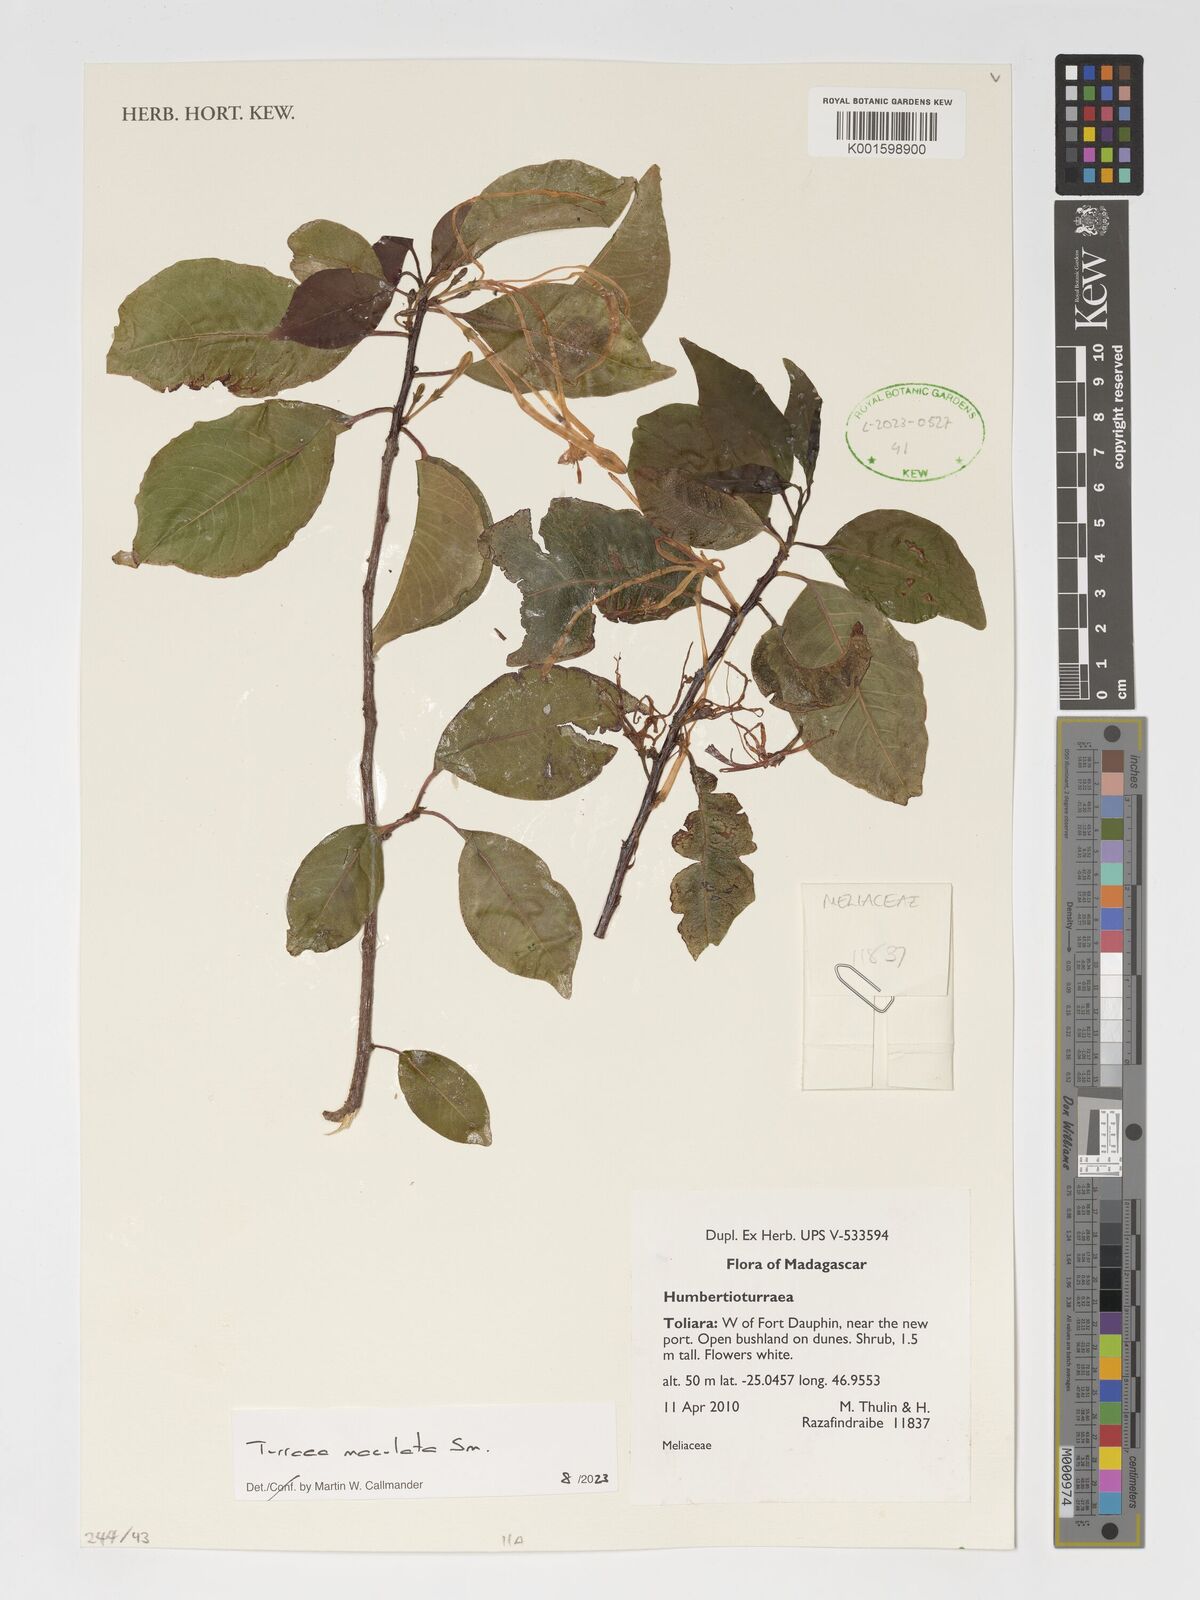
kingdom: Plantae
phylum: Tracheophyta
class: Magnoliopsida
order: Sapindales
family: Meliaceae
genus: Humbertioturraea
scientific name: Humbertioturraea maculata
